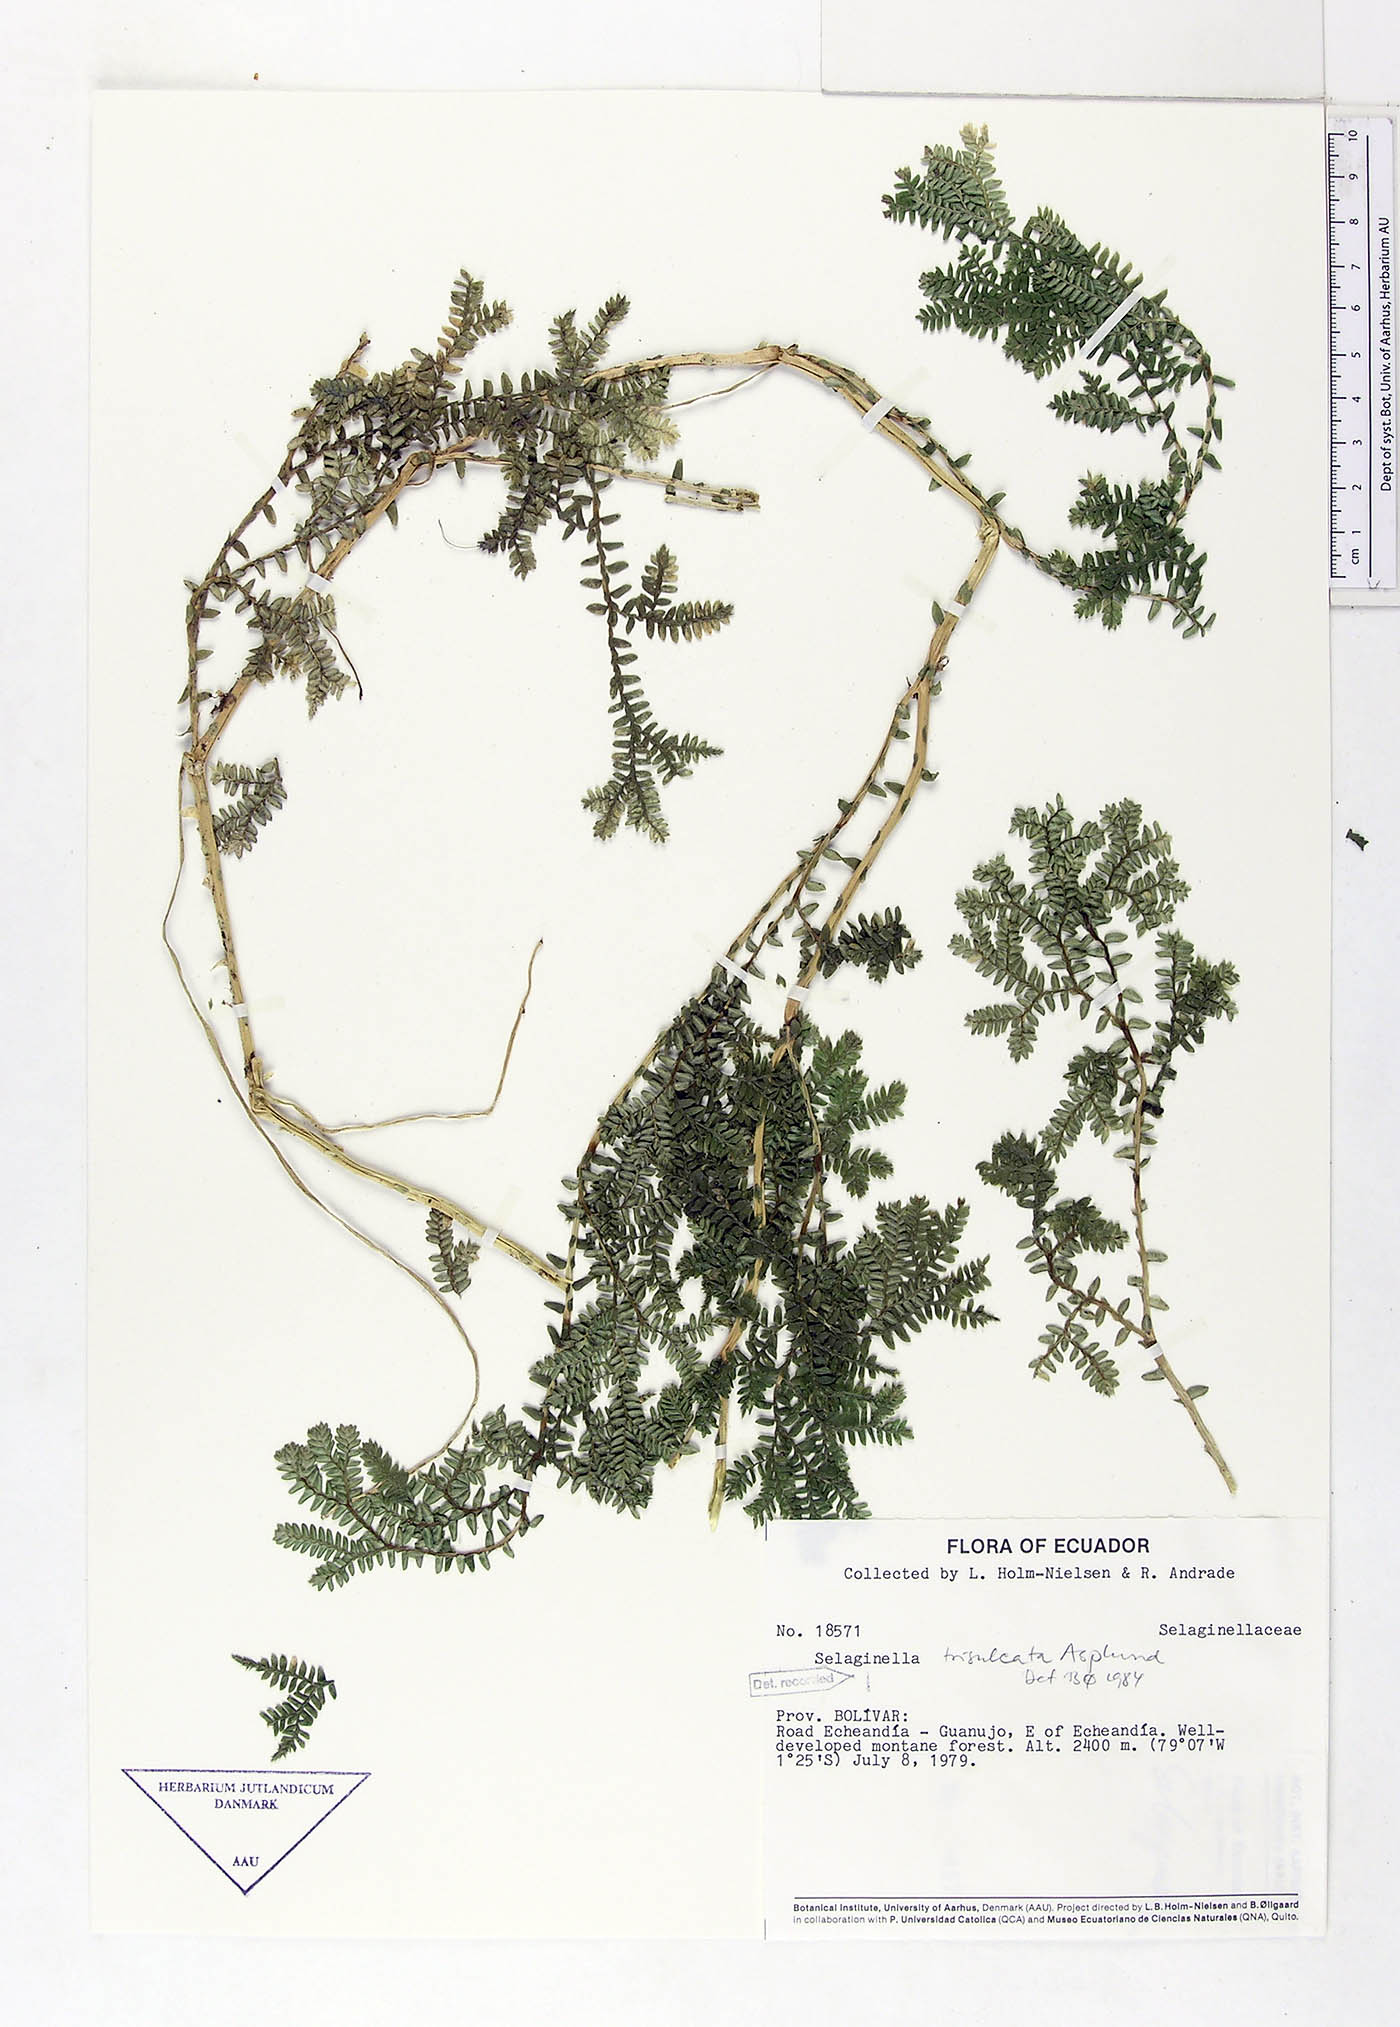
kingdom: Plantae
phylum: Tracheophyta
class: Lycopodiopsida
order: Selaginellales
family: Selaginellaceae
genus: Selaginella
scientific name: Selaginella trisulcata
